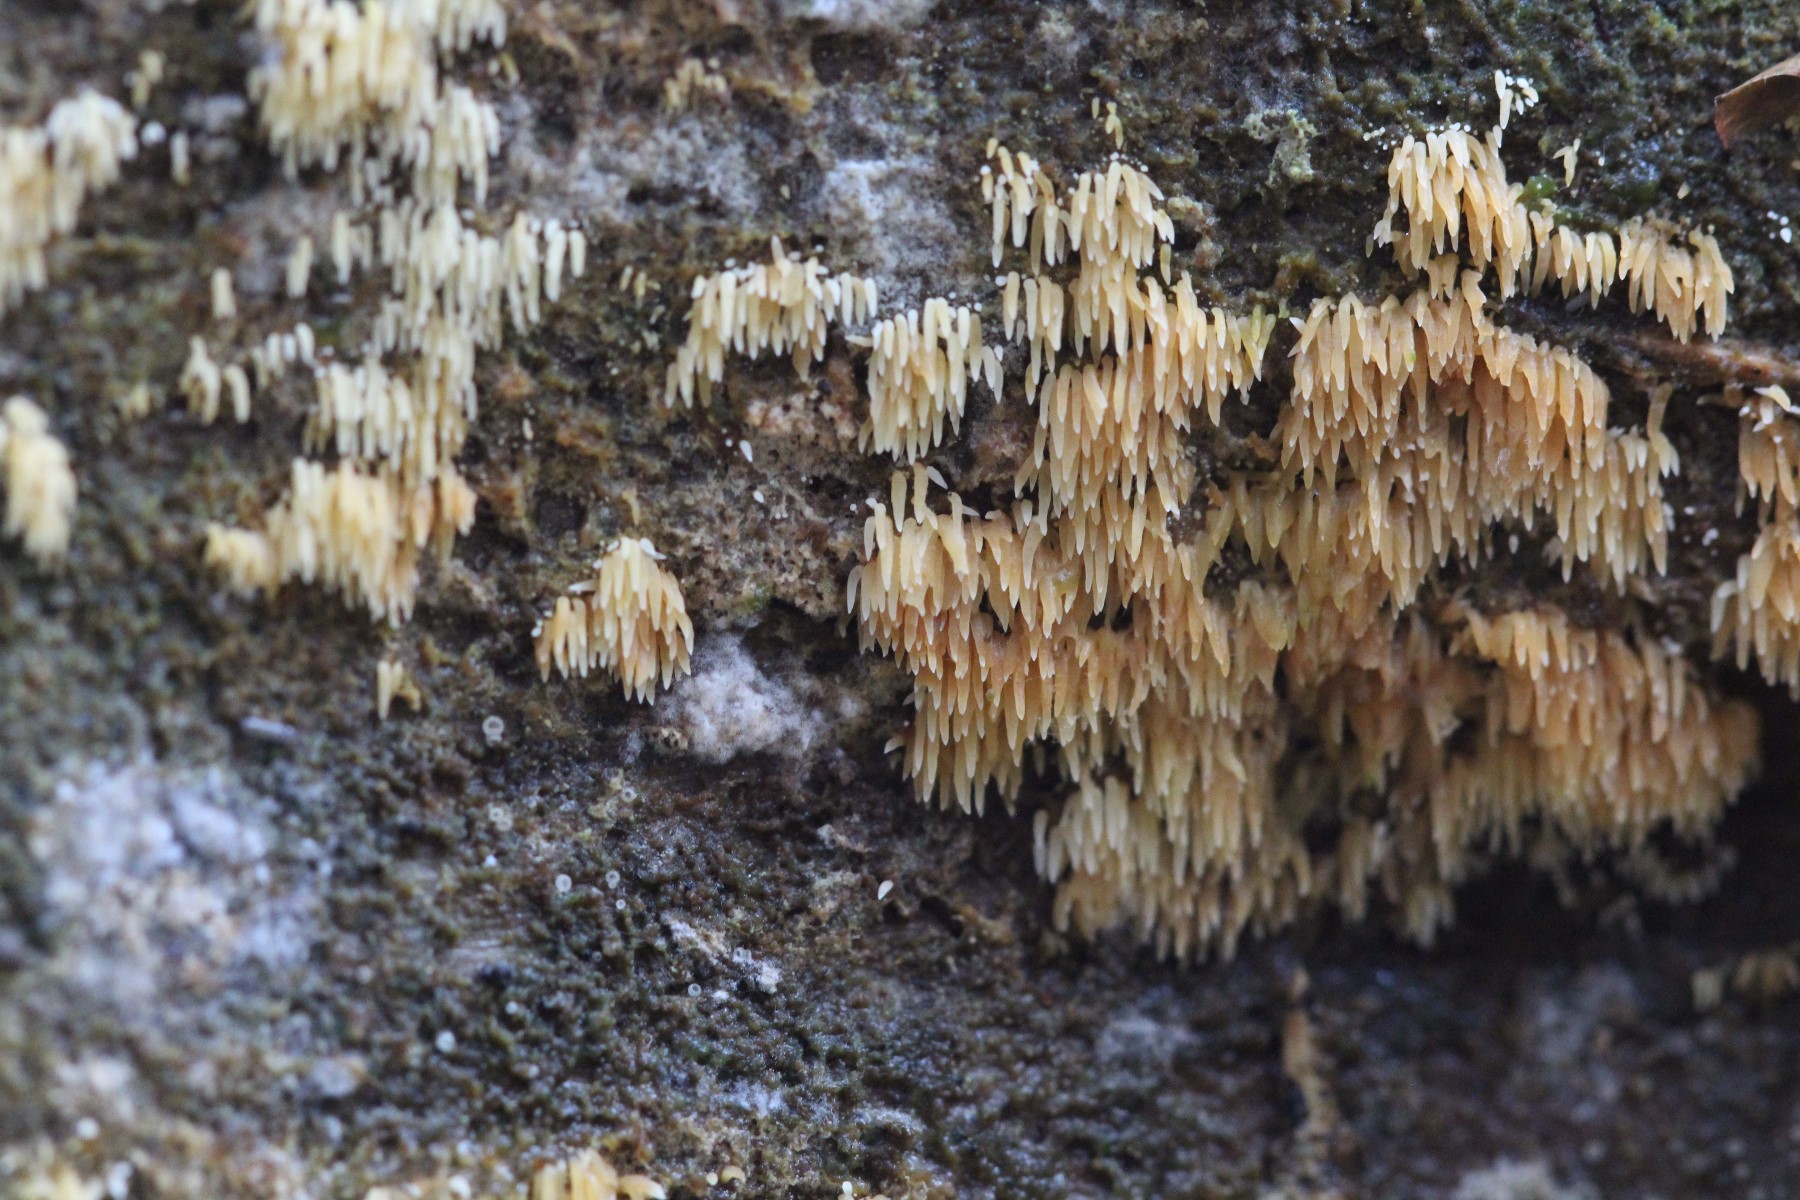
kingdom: Fungi
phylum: Basidiomycota
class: Agaricomycetes
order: Agaricales
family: Clavariaceae
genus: Mucronella
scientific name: Mucronella
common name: hængepig
